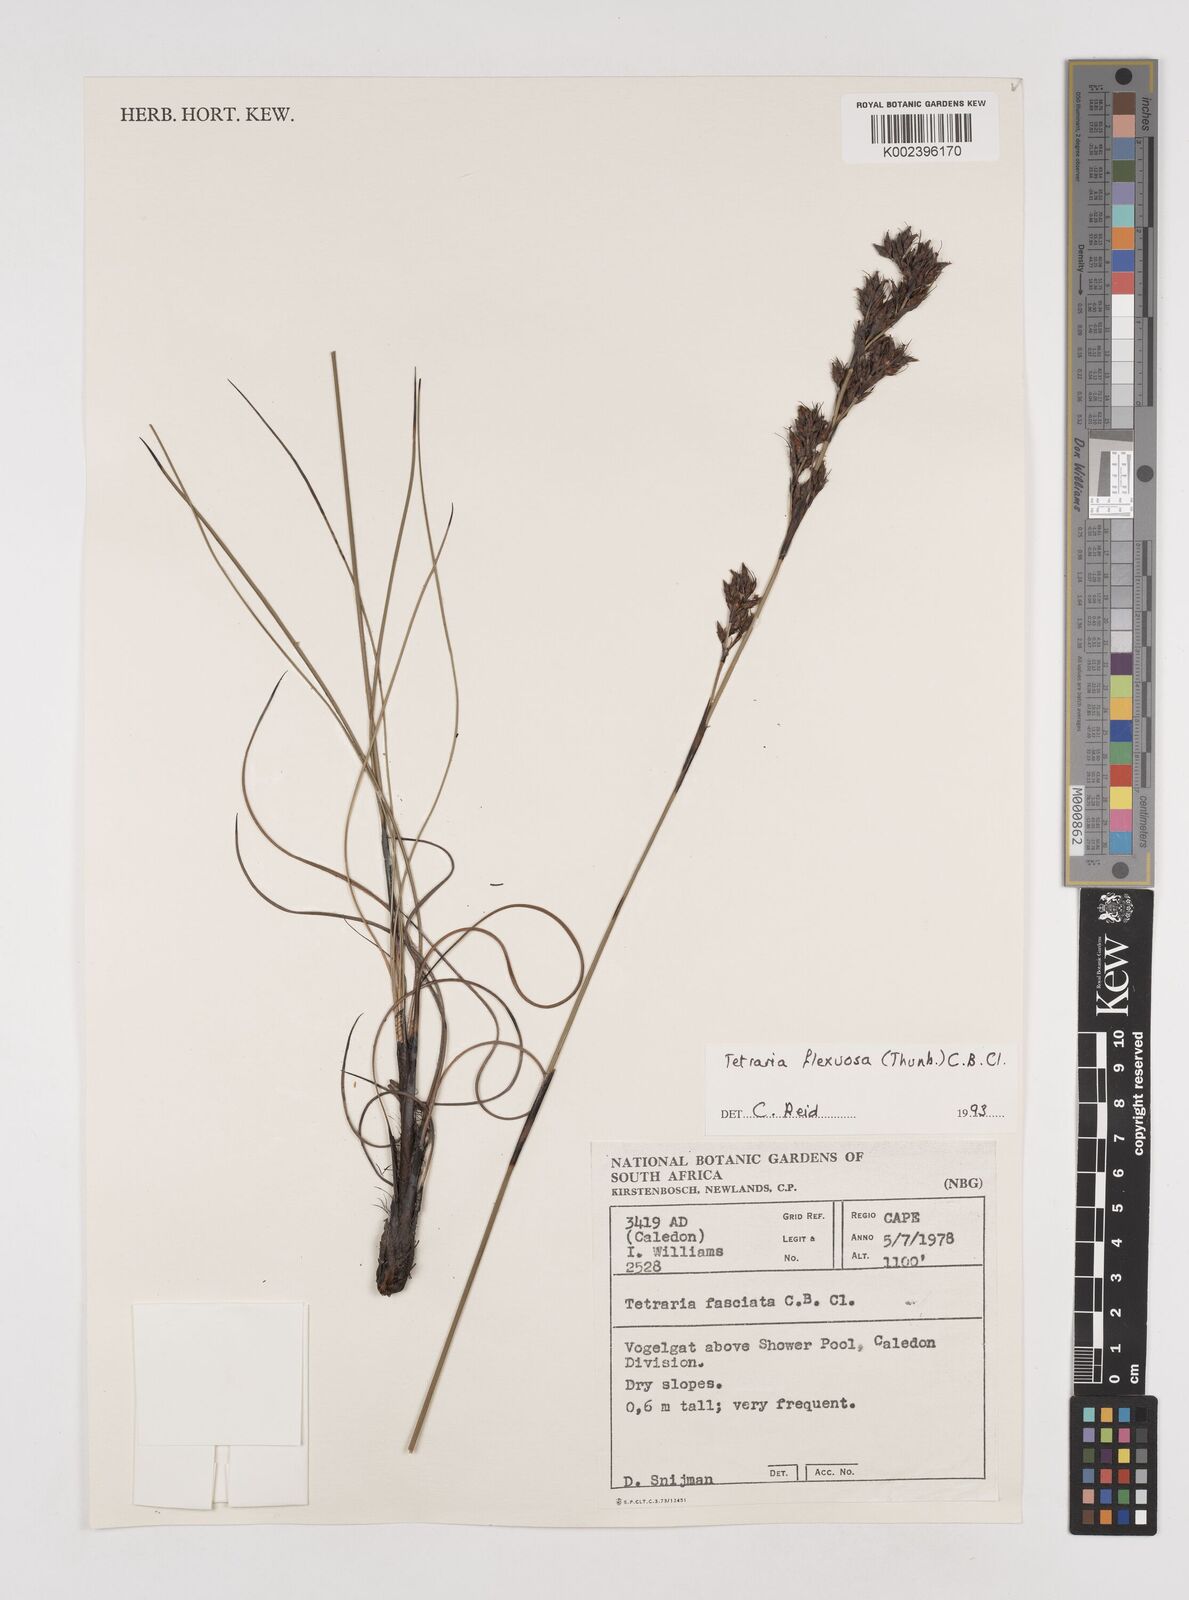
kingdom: Plantae
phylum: Tracheophyta
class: Liliopsida
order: Poales
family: Cyperaceae
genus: Tetraria
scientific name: Tetraria flexuosa
